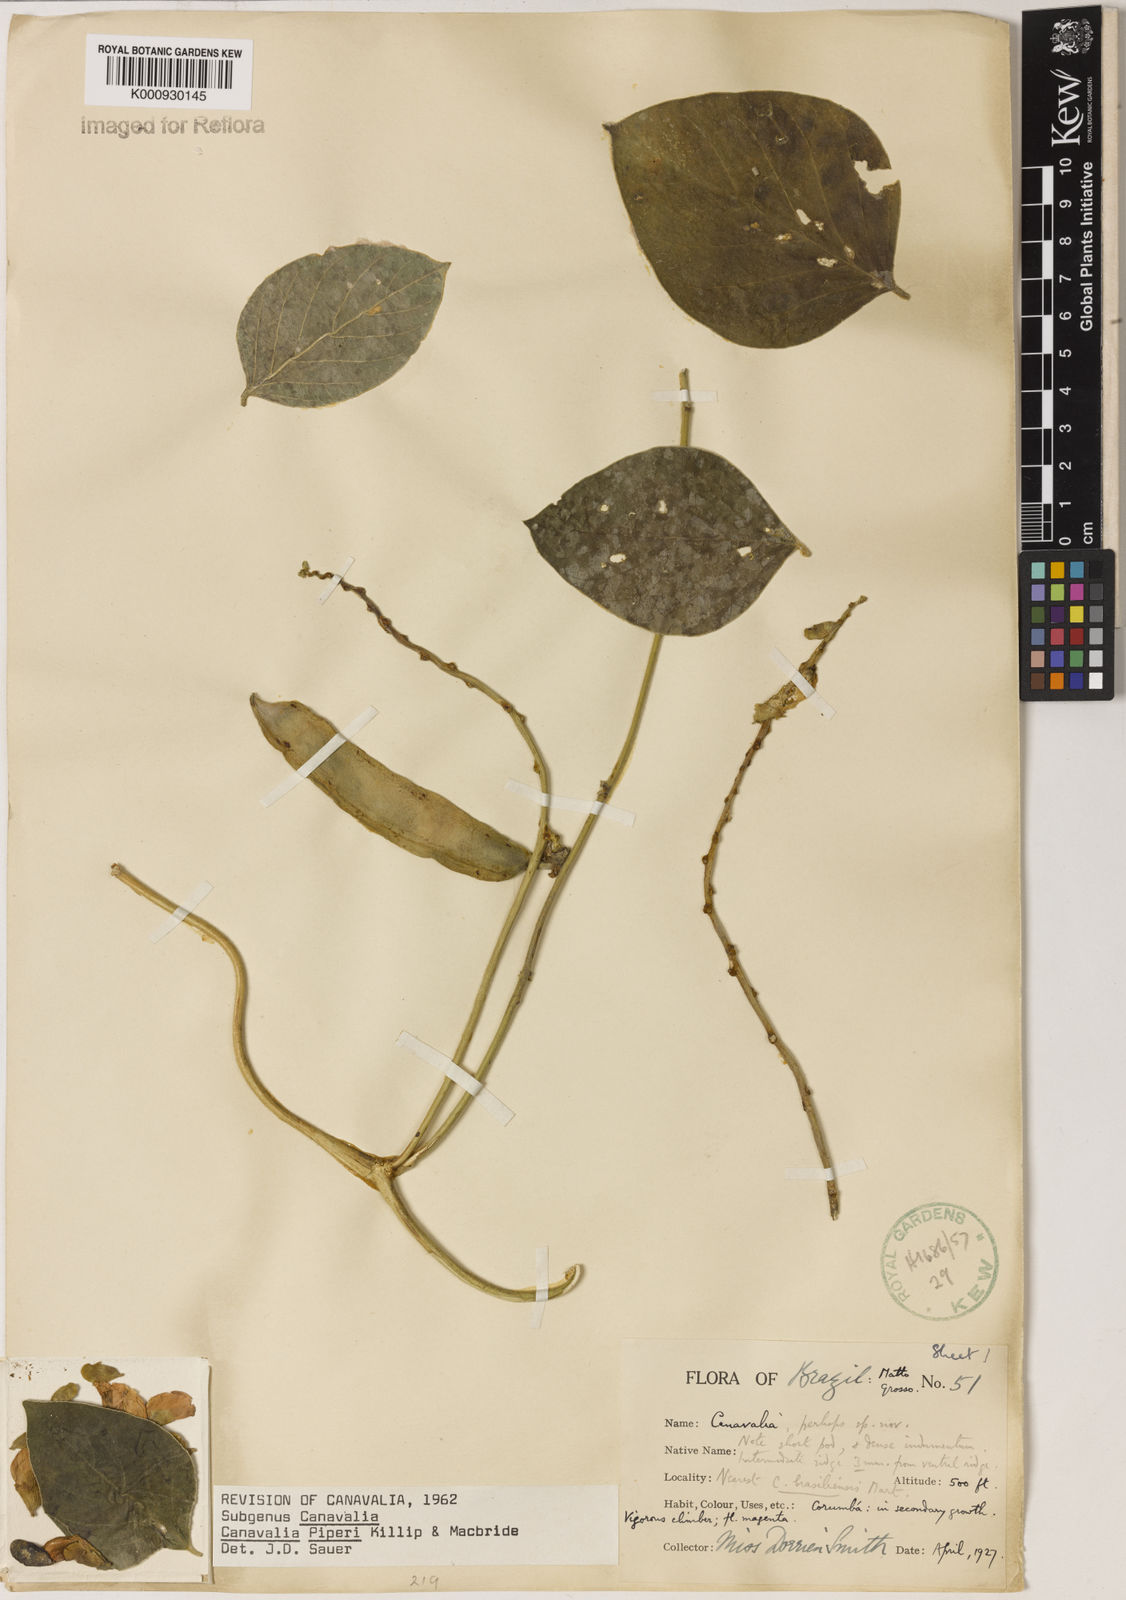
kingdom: Plantae
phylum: Tracheophyta
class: Magnoliopsida
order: Fabales
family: Fabaceae
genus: Canavalia
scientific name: Canavalia piperi
